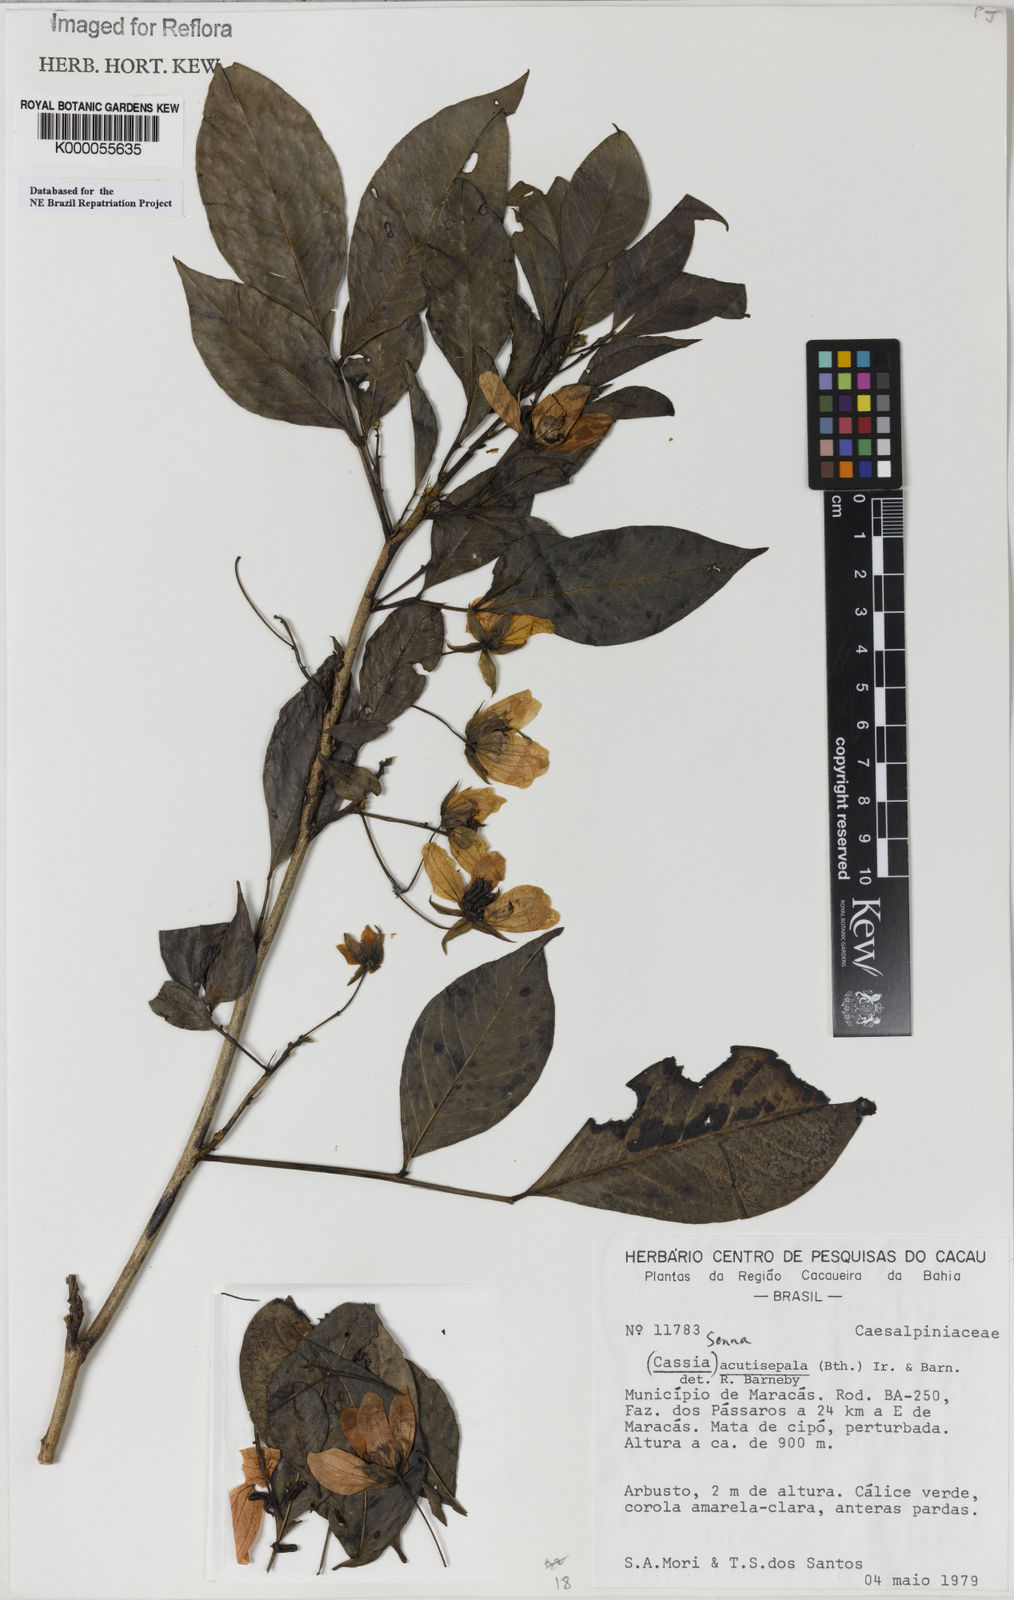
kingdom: Plantae
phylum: Tracheophyta
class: Magnoliopsida
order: Fabales
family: Fabaceae
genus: Senna
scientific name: Senna acutisepala
